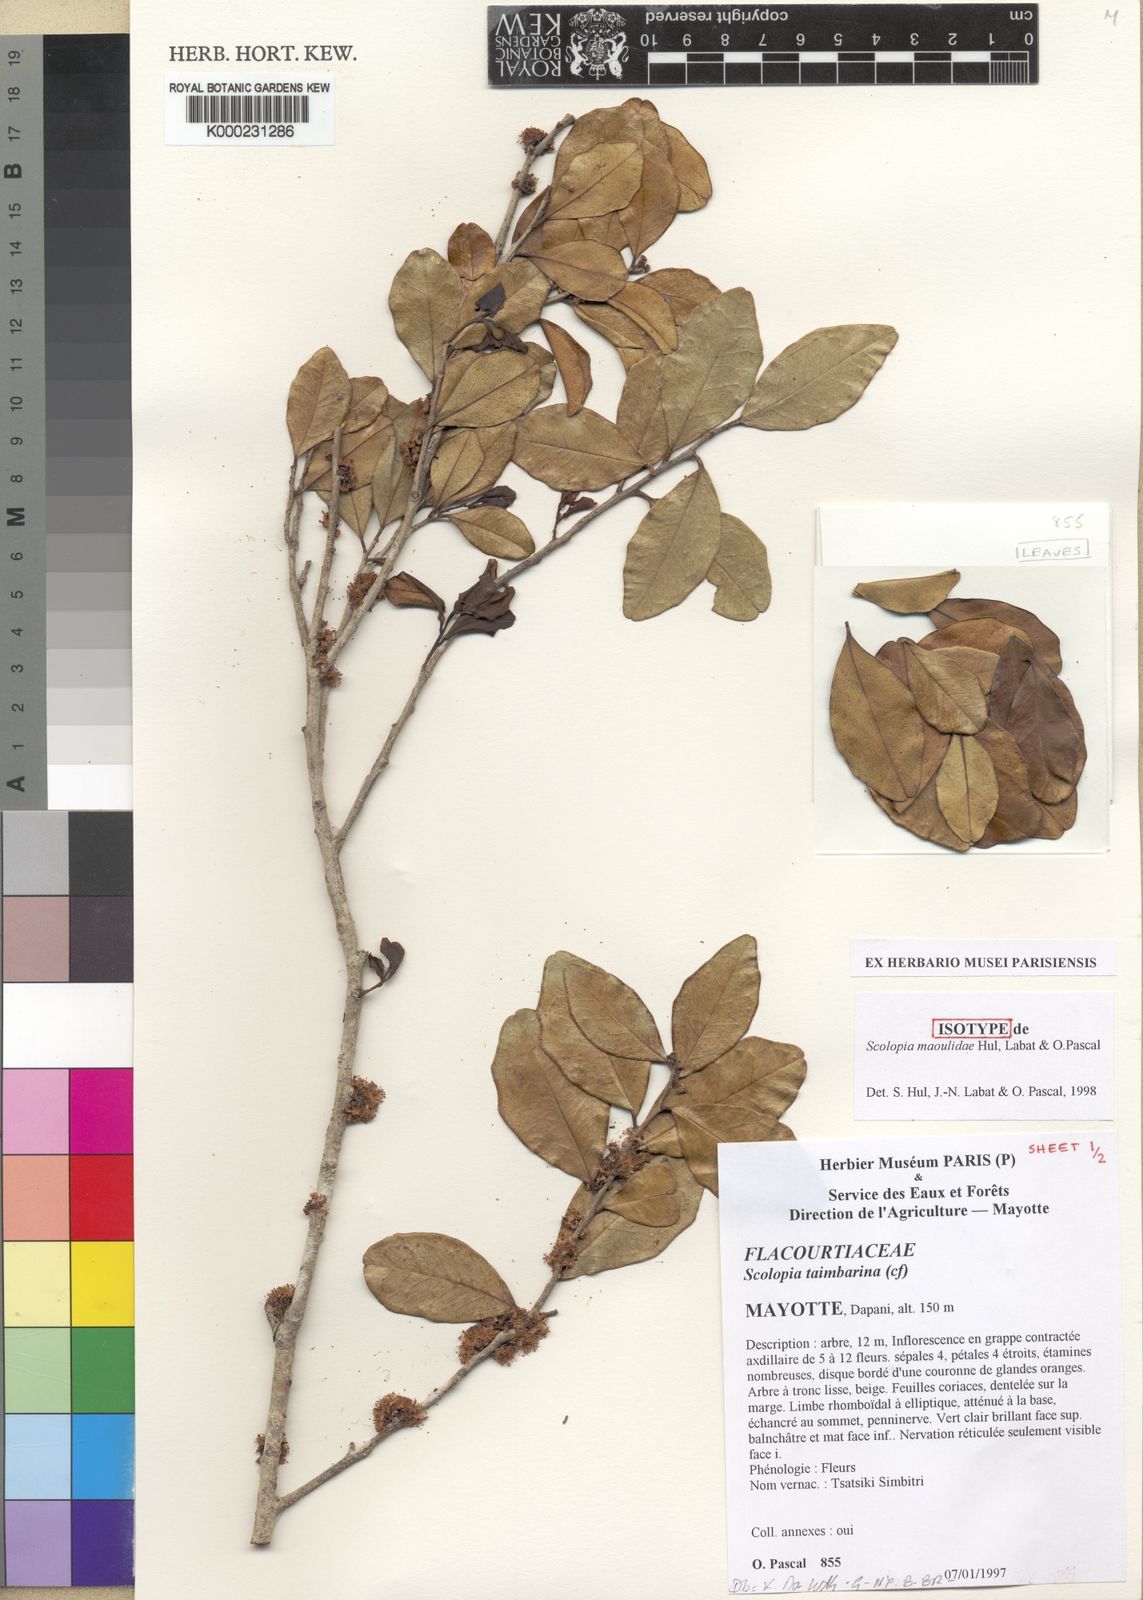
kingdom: Plantae
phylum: Tracheophyta
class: Magnoliopsida
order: Malpighiales
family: Salicaceae
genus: Scolopia
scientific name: Scolopia
